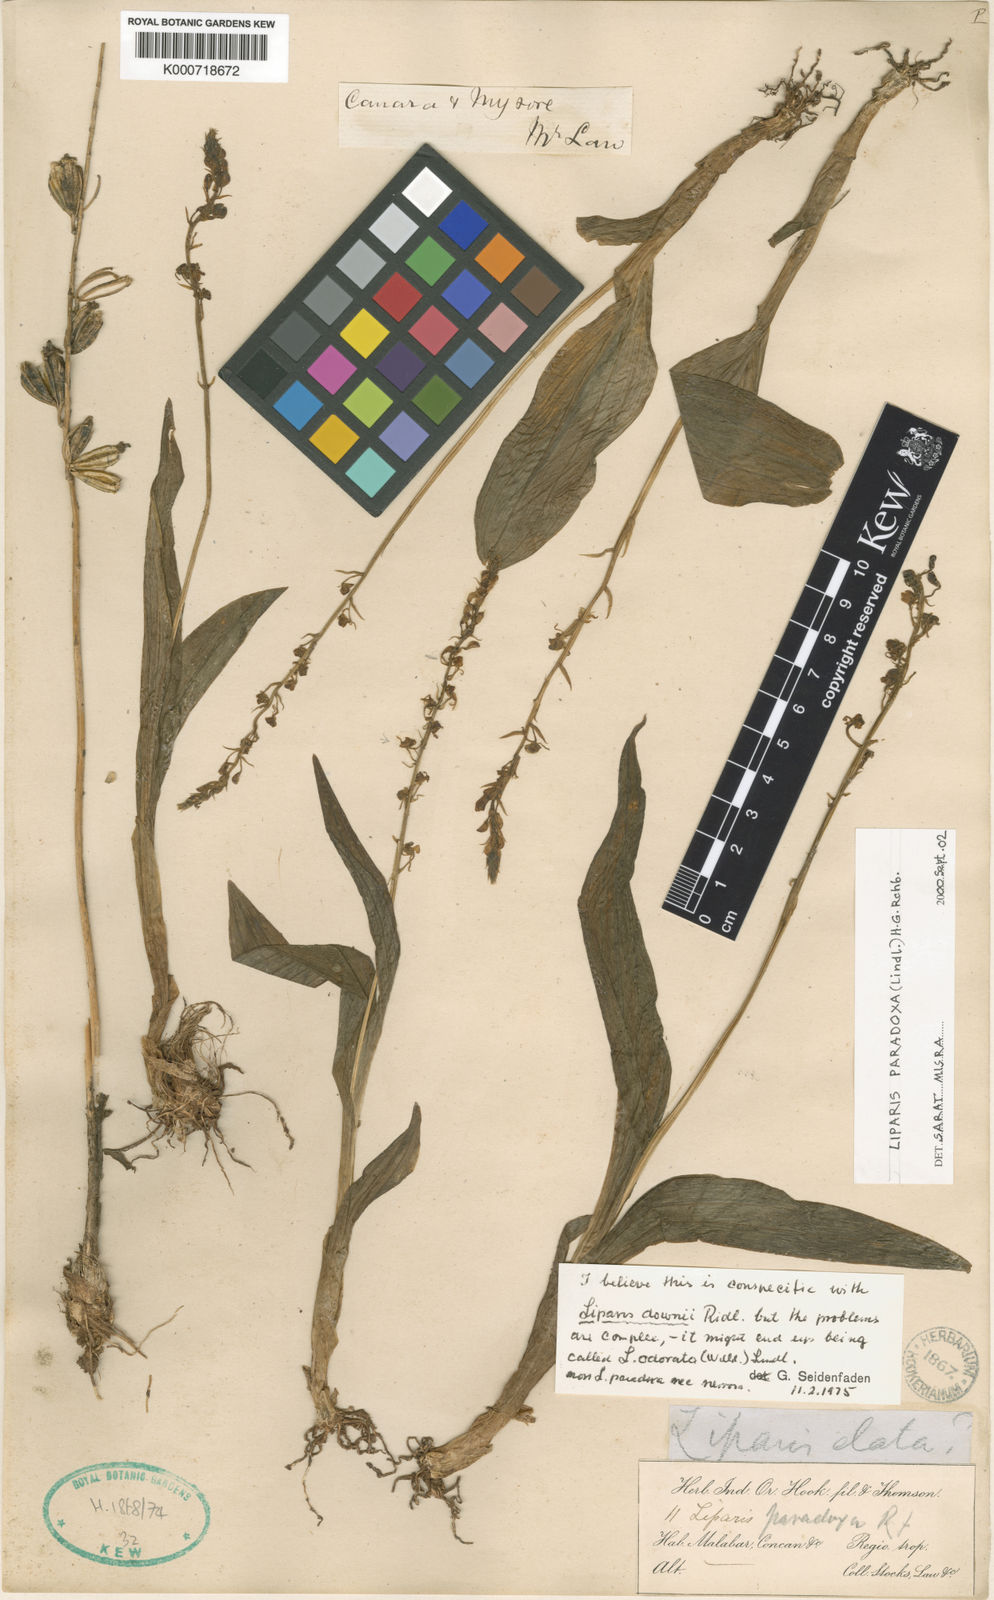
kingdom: Plantae
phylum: Tracheophyta
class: Liliopsida
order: Asparagales
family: Orchidaceae
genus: Liparis
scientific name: Liparis odorata
